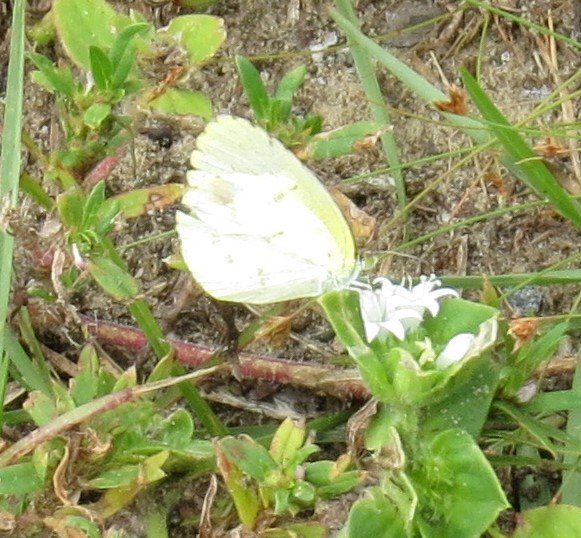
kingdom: Animalia
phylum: Arthropoda
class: Insecta
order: Lepidoptera
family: Pieridae
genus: Pyrisitia
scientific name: Pyrisitia lisa
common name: Little Yellow
